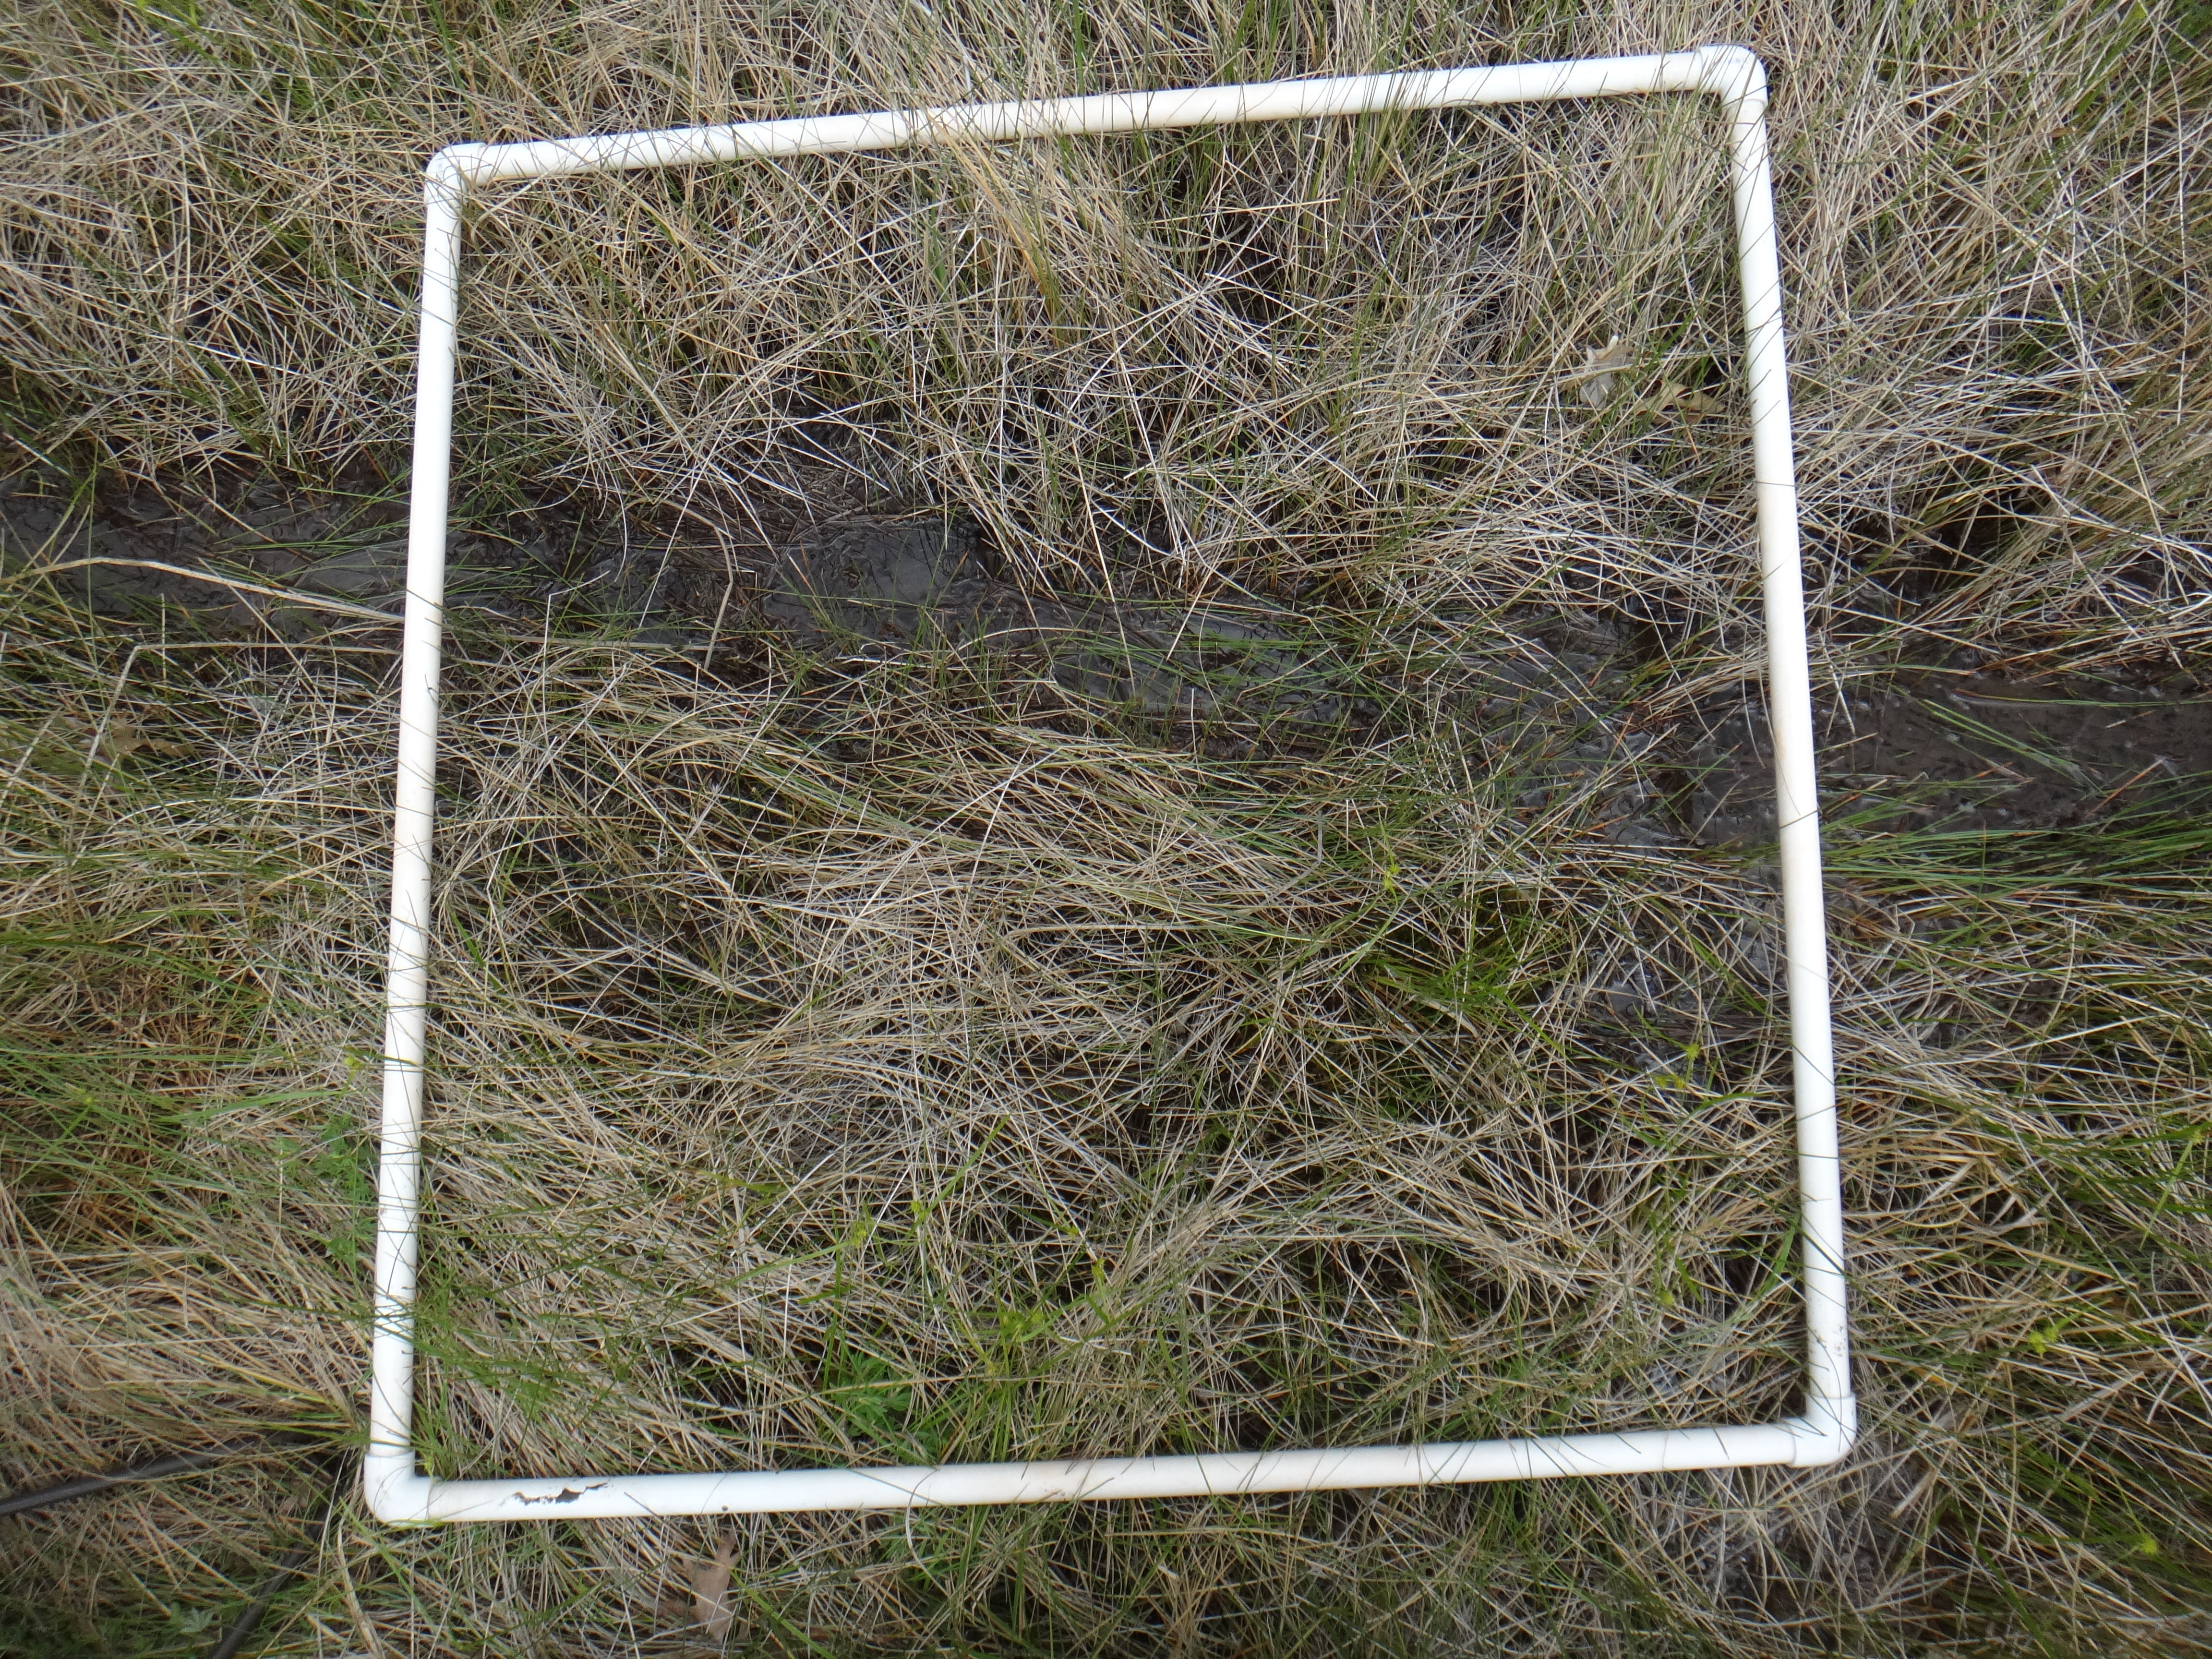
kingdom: Plantae
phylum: Tracheophyta
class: Liliopsida
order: Poales
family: Cyperaceae
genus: Carex
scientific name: Carex aquatilis
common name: Water sedge
